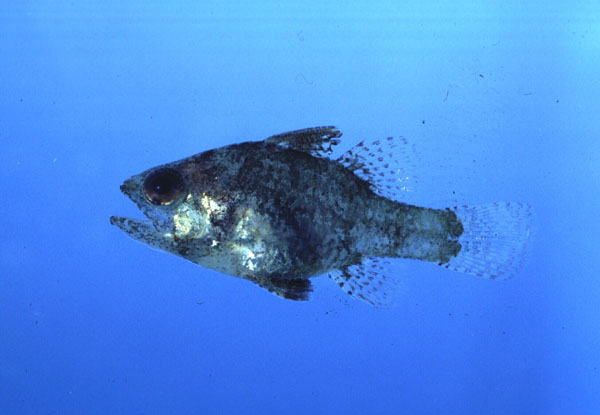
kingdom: Animalia
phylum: Chordata
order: Perciformes
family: Apogonidae
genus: Foa
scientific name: Foa
